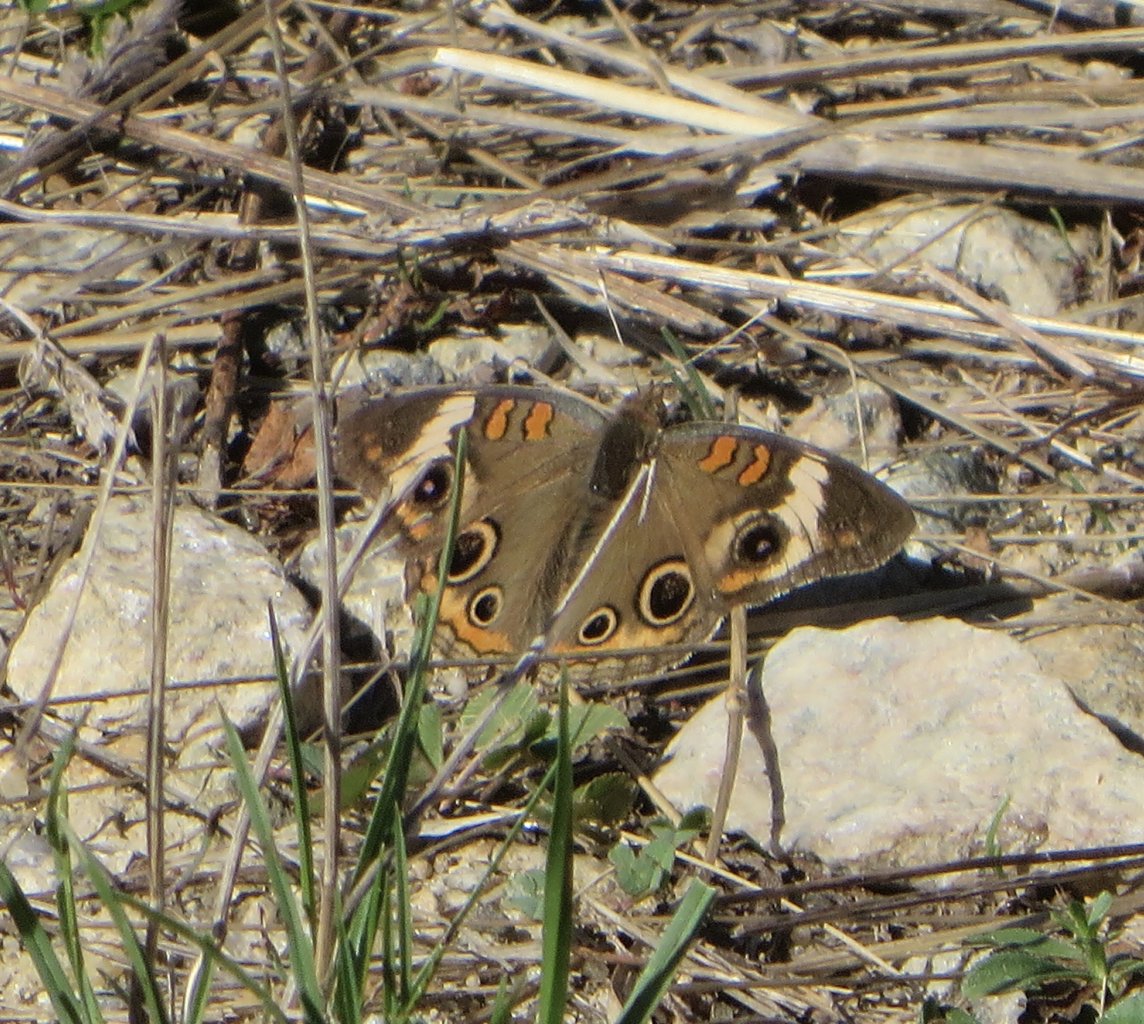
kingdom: Animalia
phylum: Arthropoda
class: Insecta
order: Lepidoptera
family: Nymphalidae
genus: Junonia
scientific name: Junonia coenia
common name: Common Buckeye
